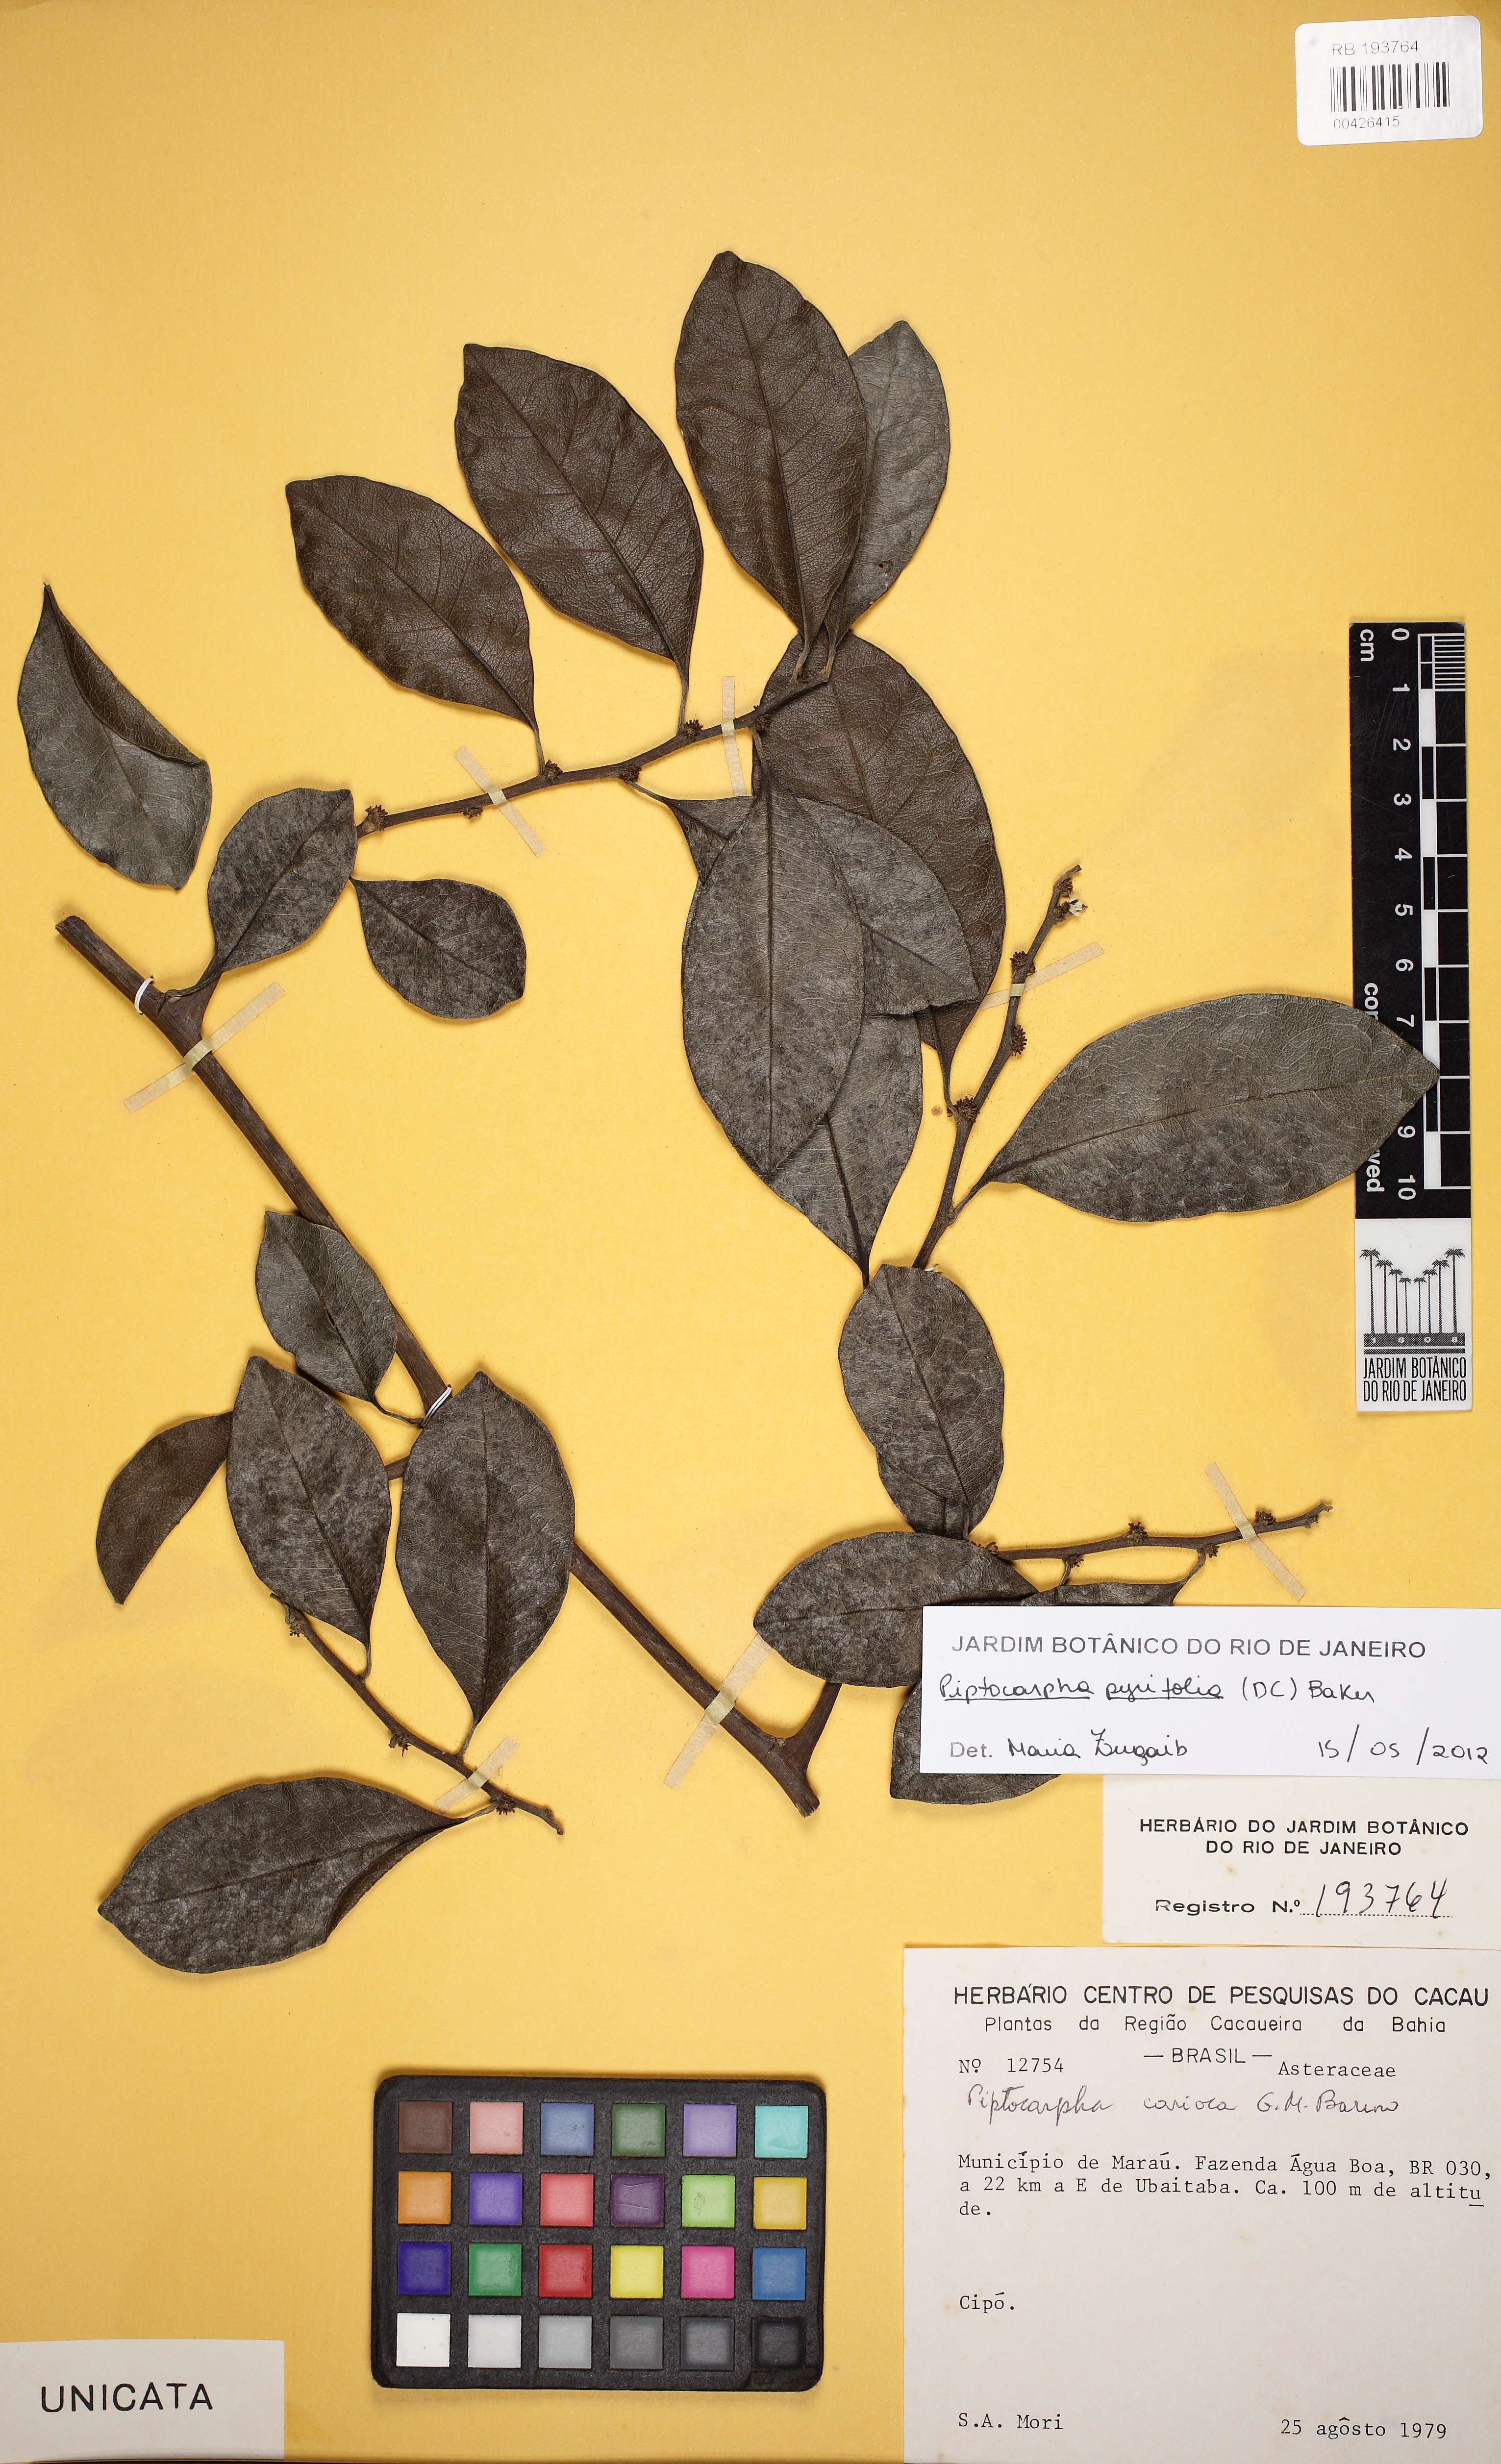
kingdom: Plantae
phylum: Tracheophyta
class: Magnoliopsida
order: Asterales
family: Asteraceae
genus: Piptocarpha
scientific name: Piptocarpha pyrifolia
